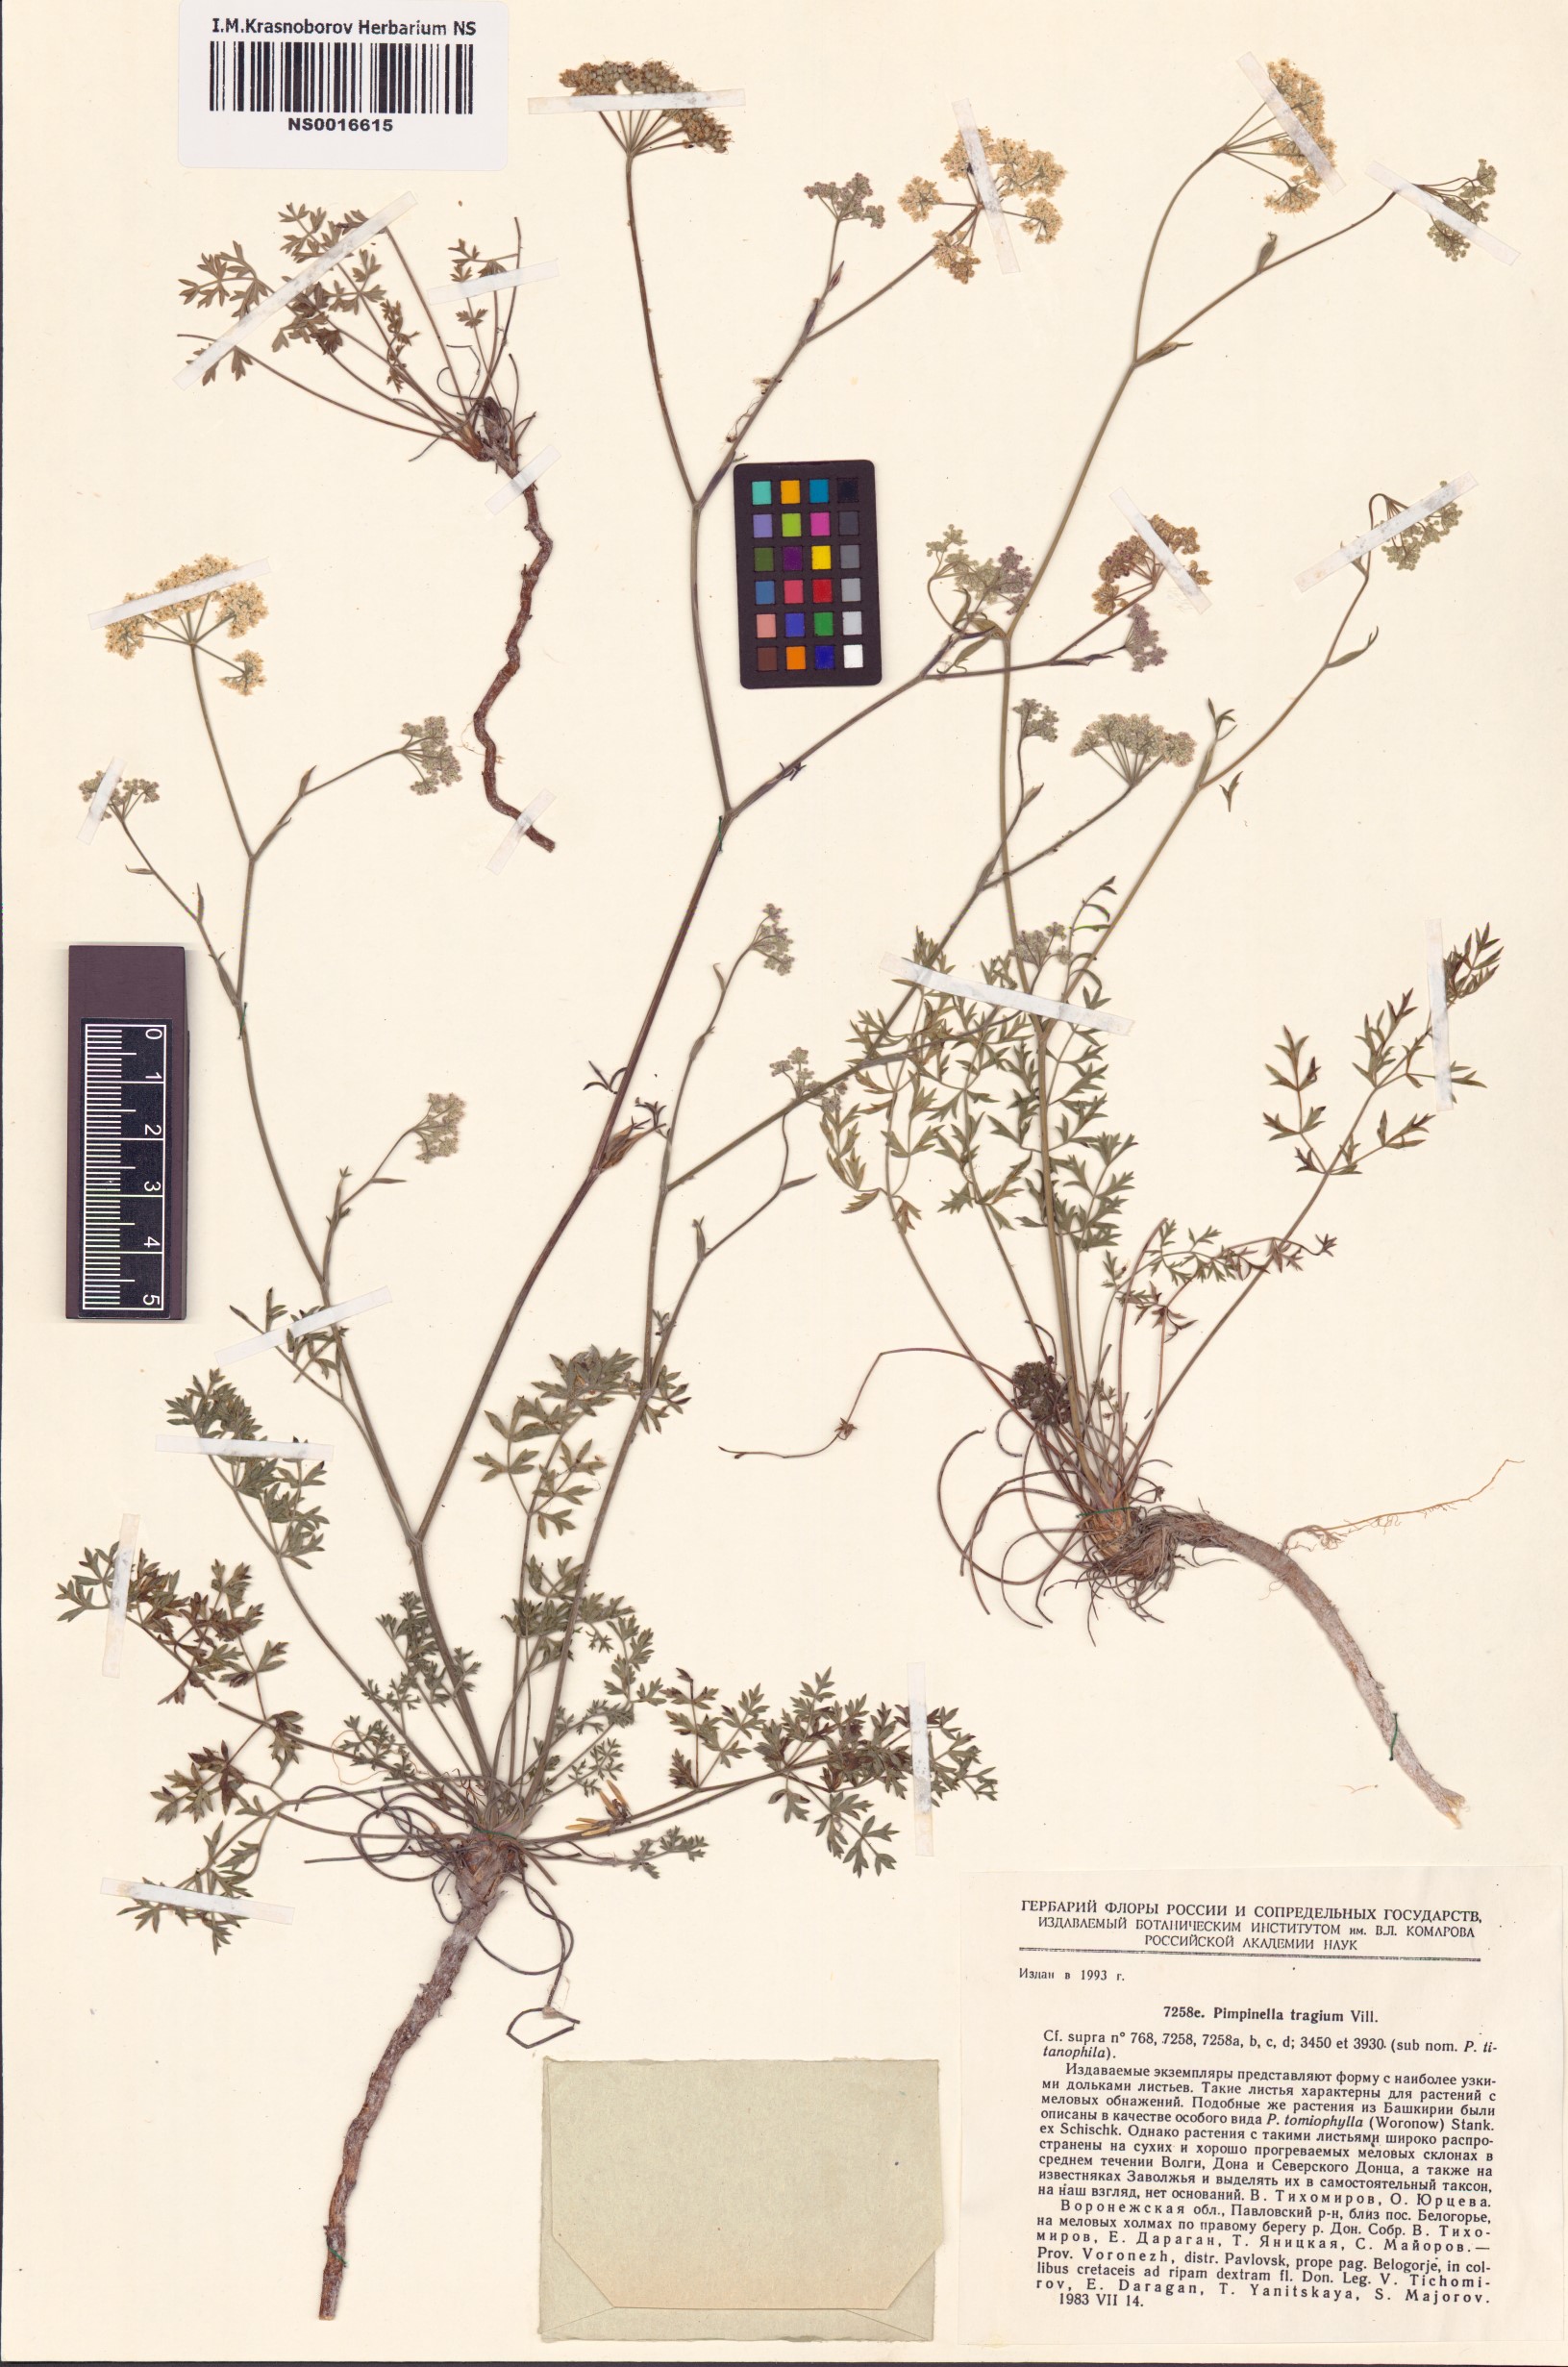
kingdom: Plantae
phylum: Tracheophyta
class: Magnoliopsida
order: Apiales
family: Apiaceae
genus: Pimpinella
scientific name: Pimpinella tragium
